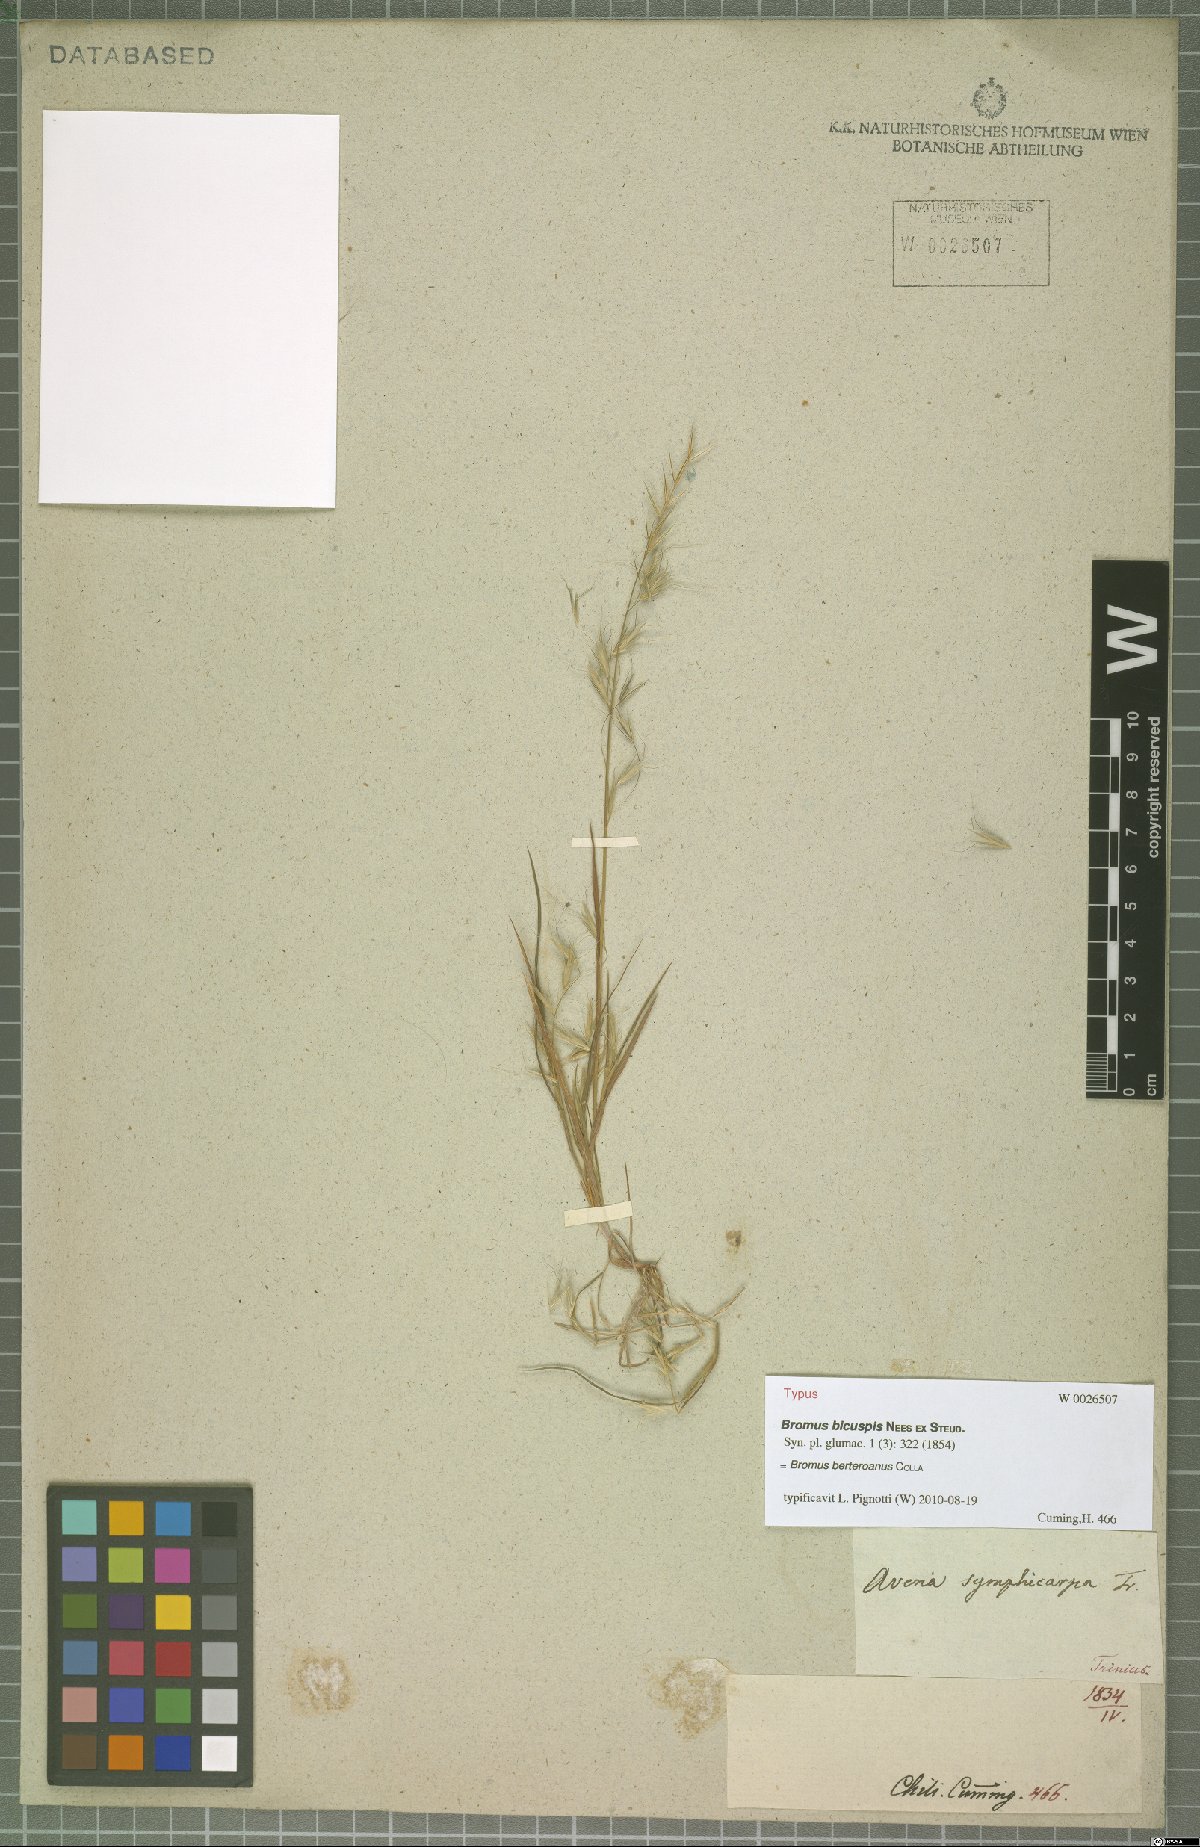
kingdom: Plantae
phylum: Tracheophyta
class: Liliopsida
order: Poales
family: Poaceae
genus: Bromus
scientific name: Bromus berteroanus
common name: Chilean chess
